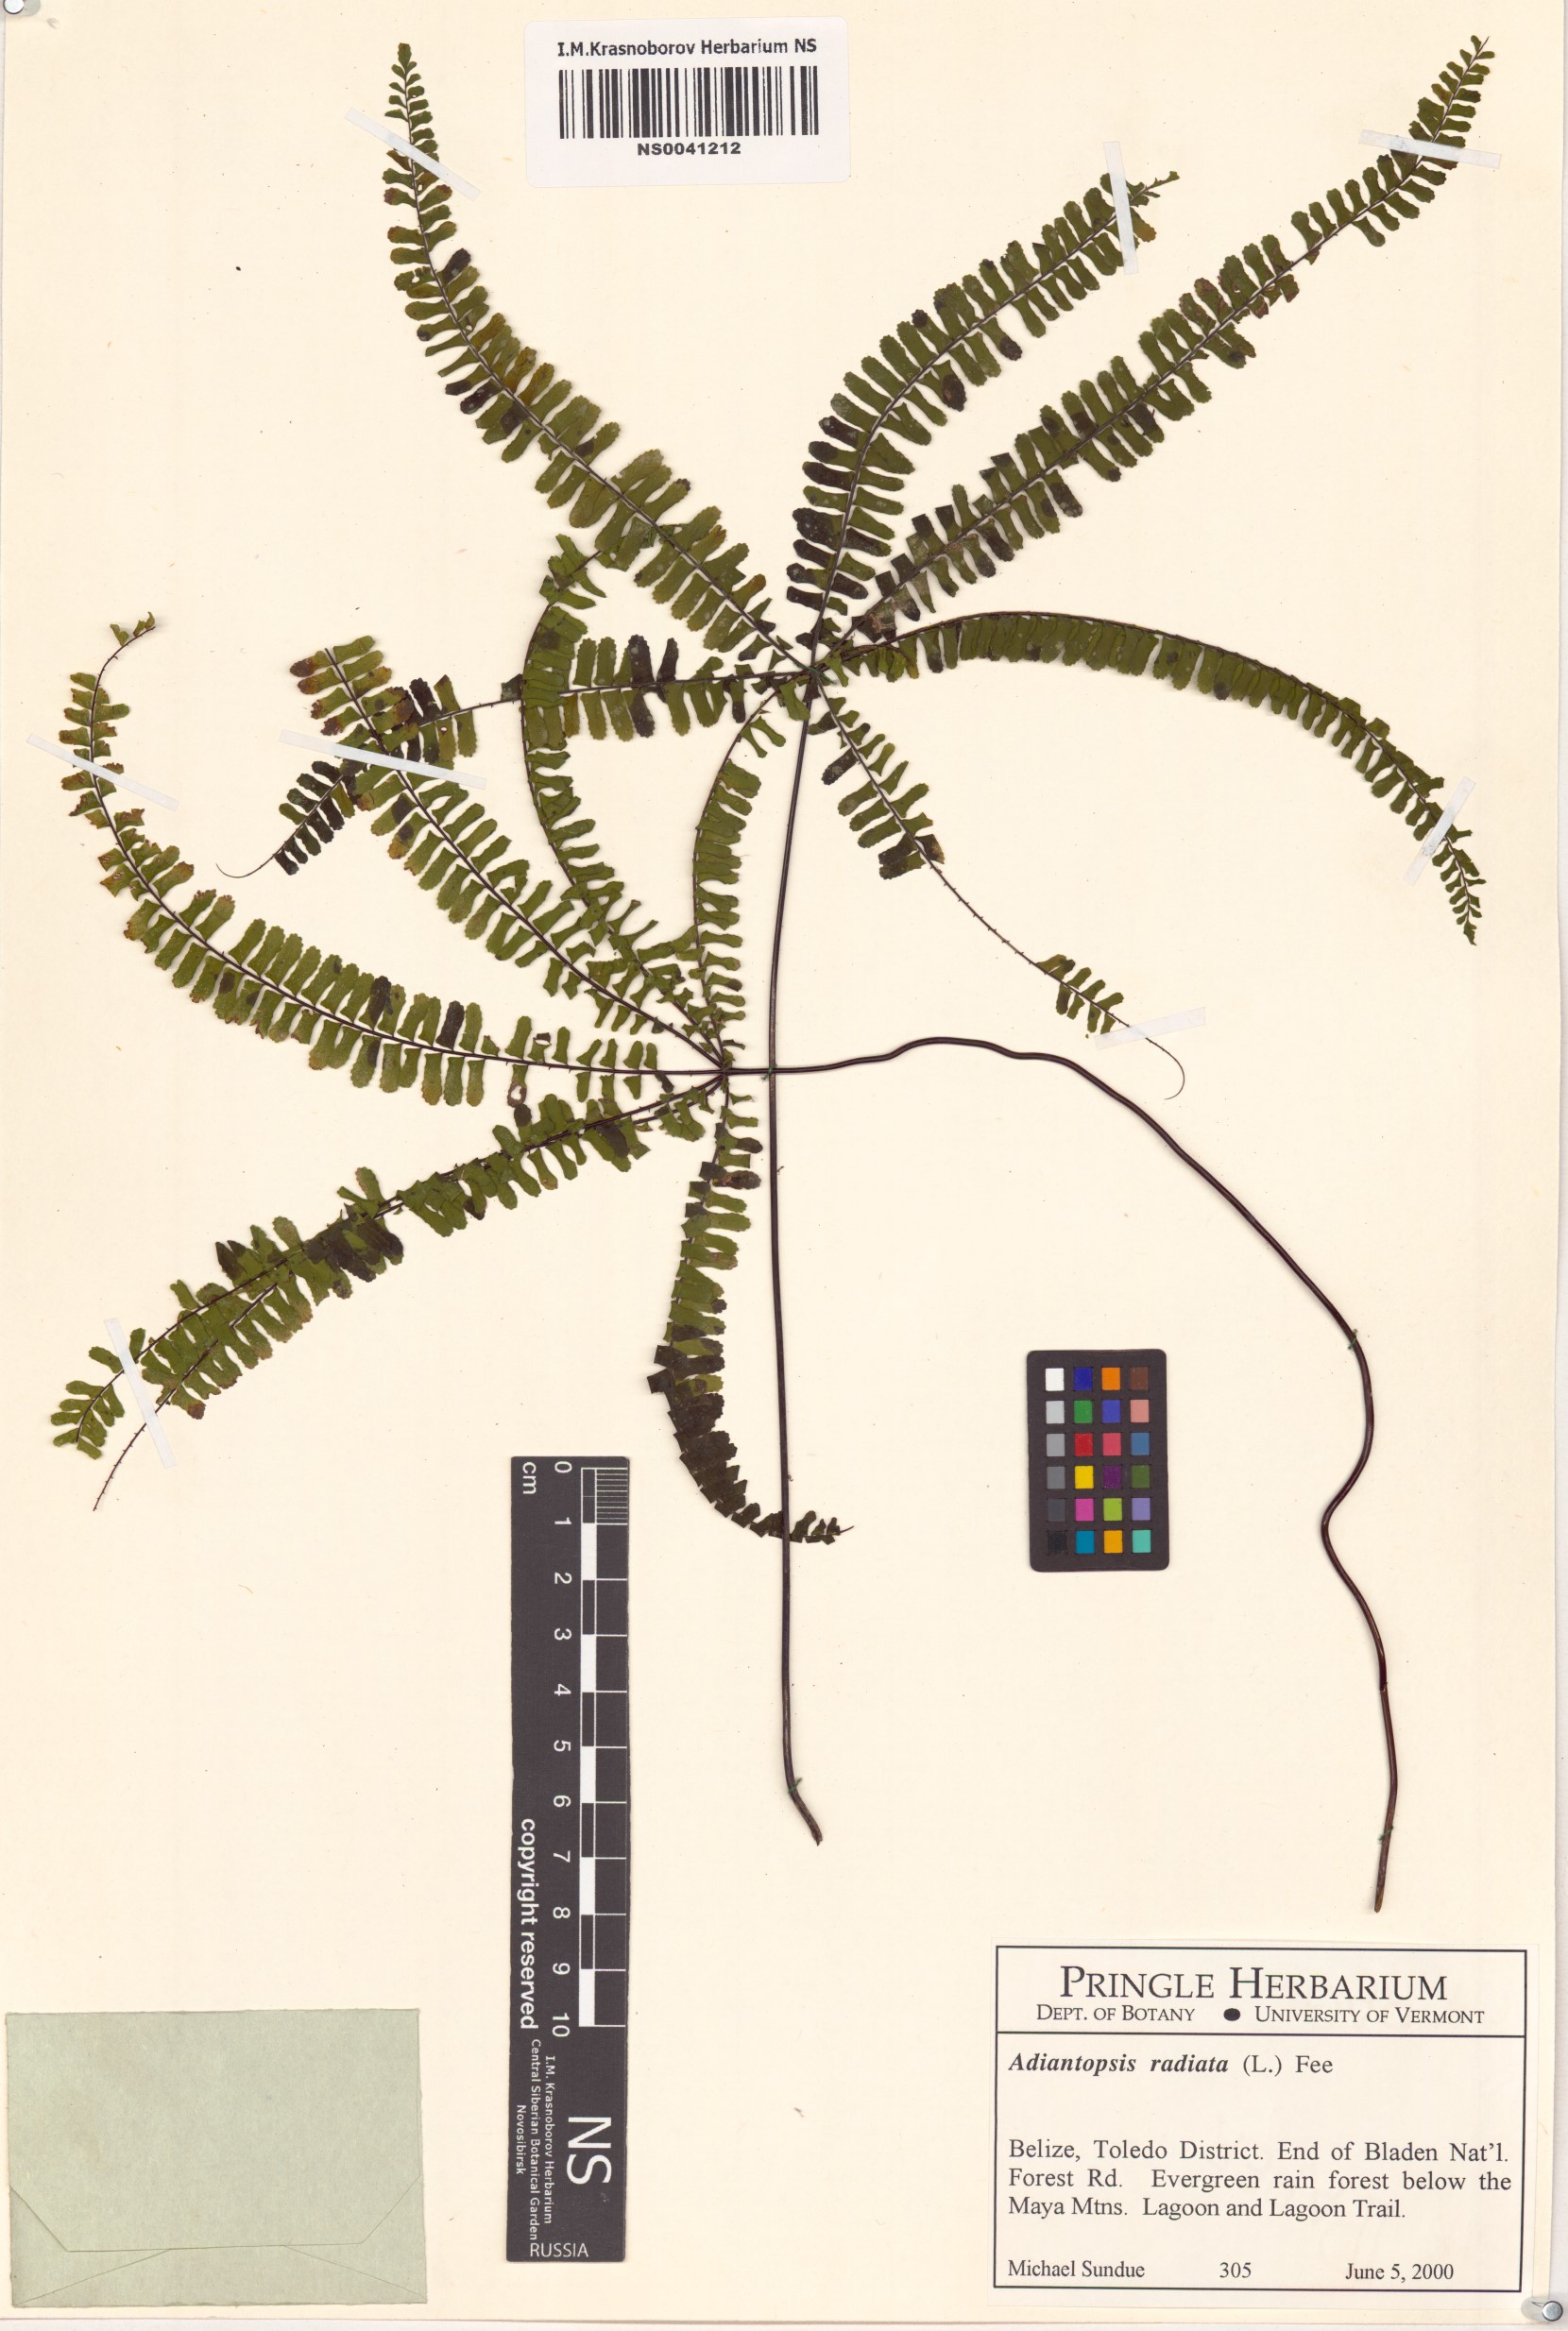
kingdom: Plantae
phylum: Tracheophyta
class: Polypodiopsida
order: Polypodiales
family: Pteridaceae
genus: Adiantopsis
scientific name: Adiantopsis radiata
